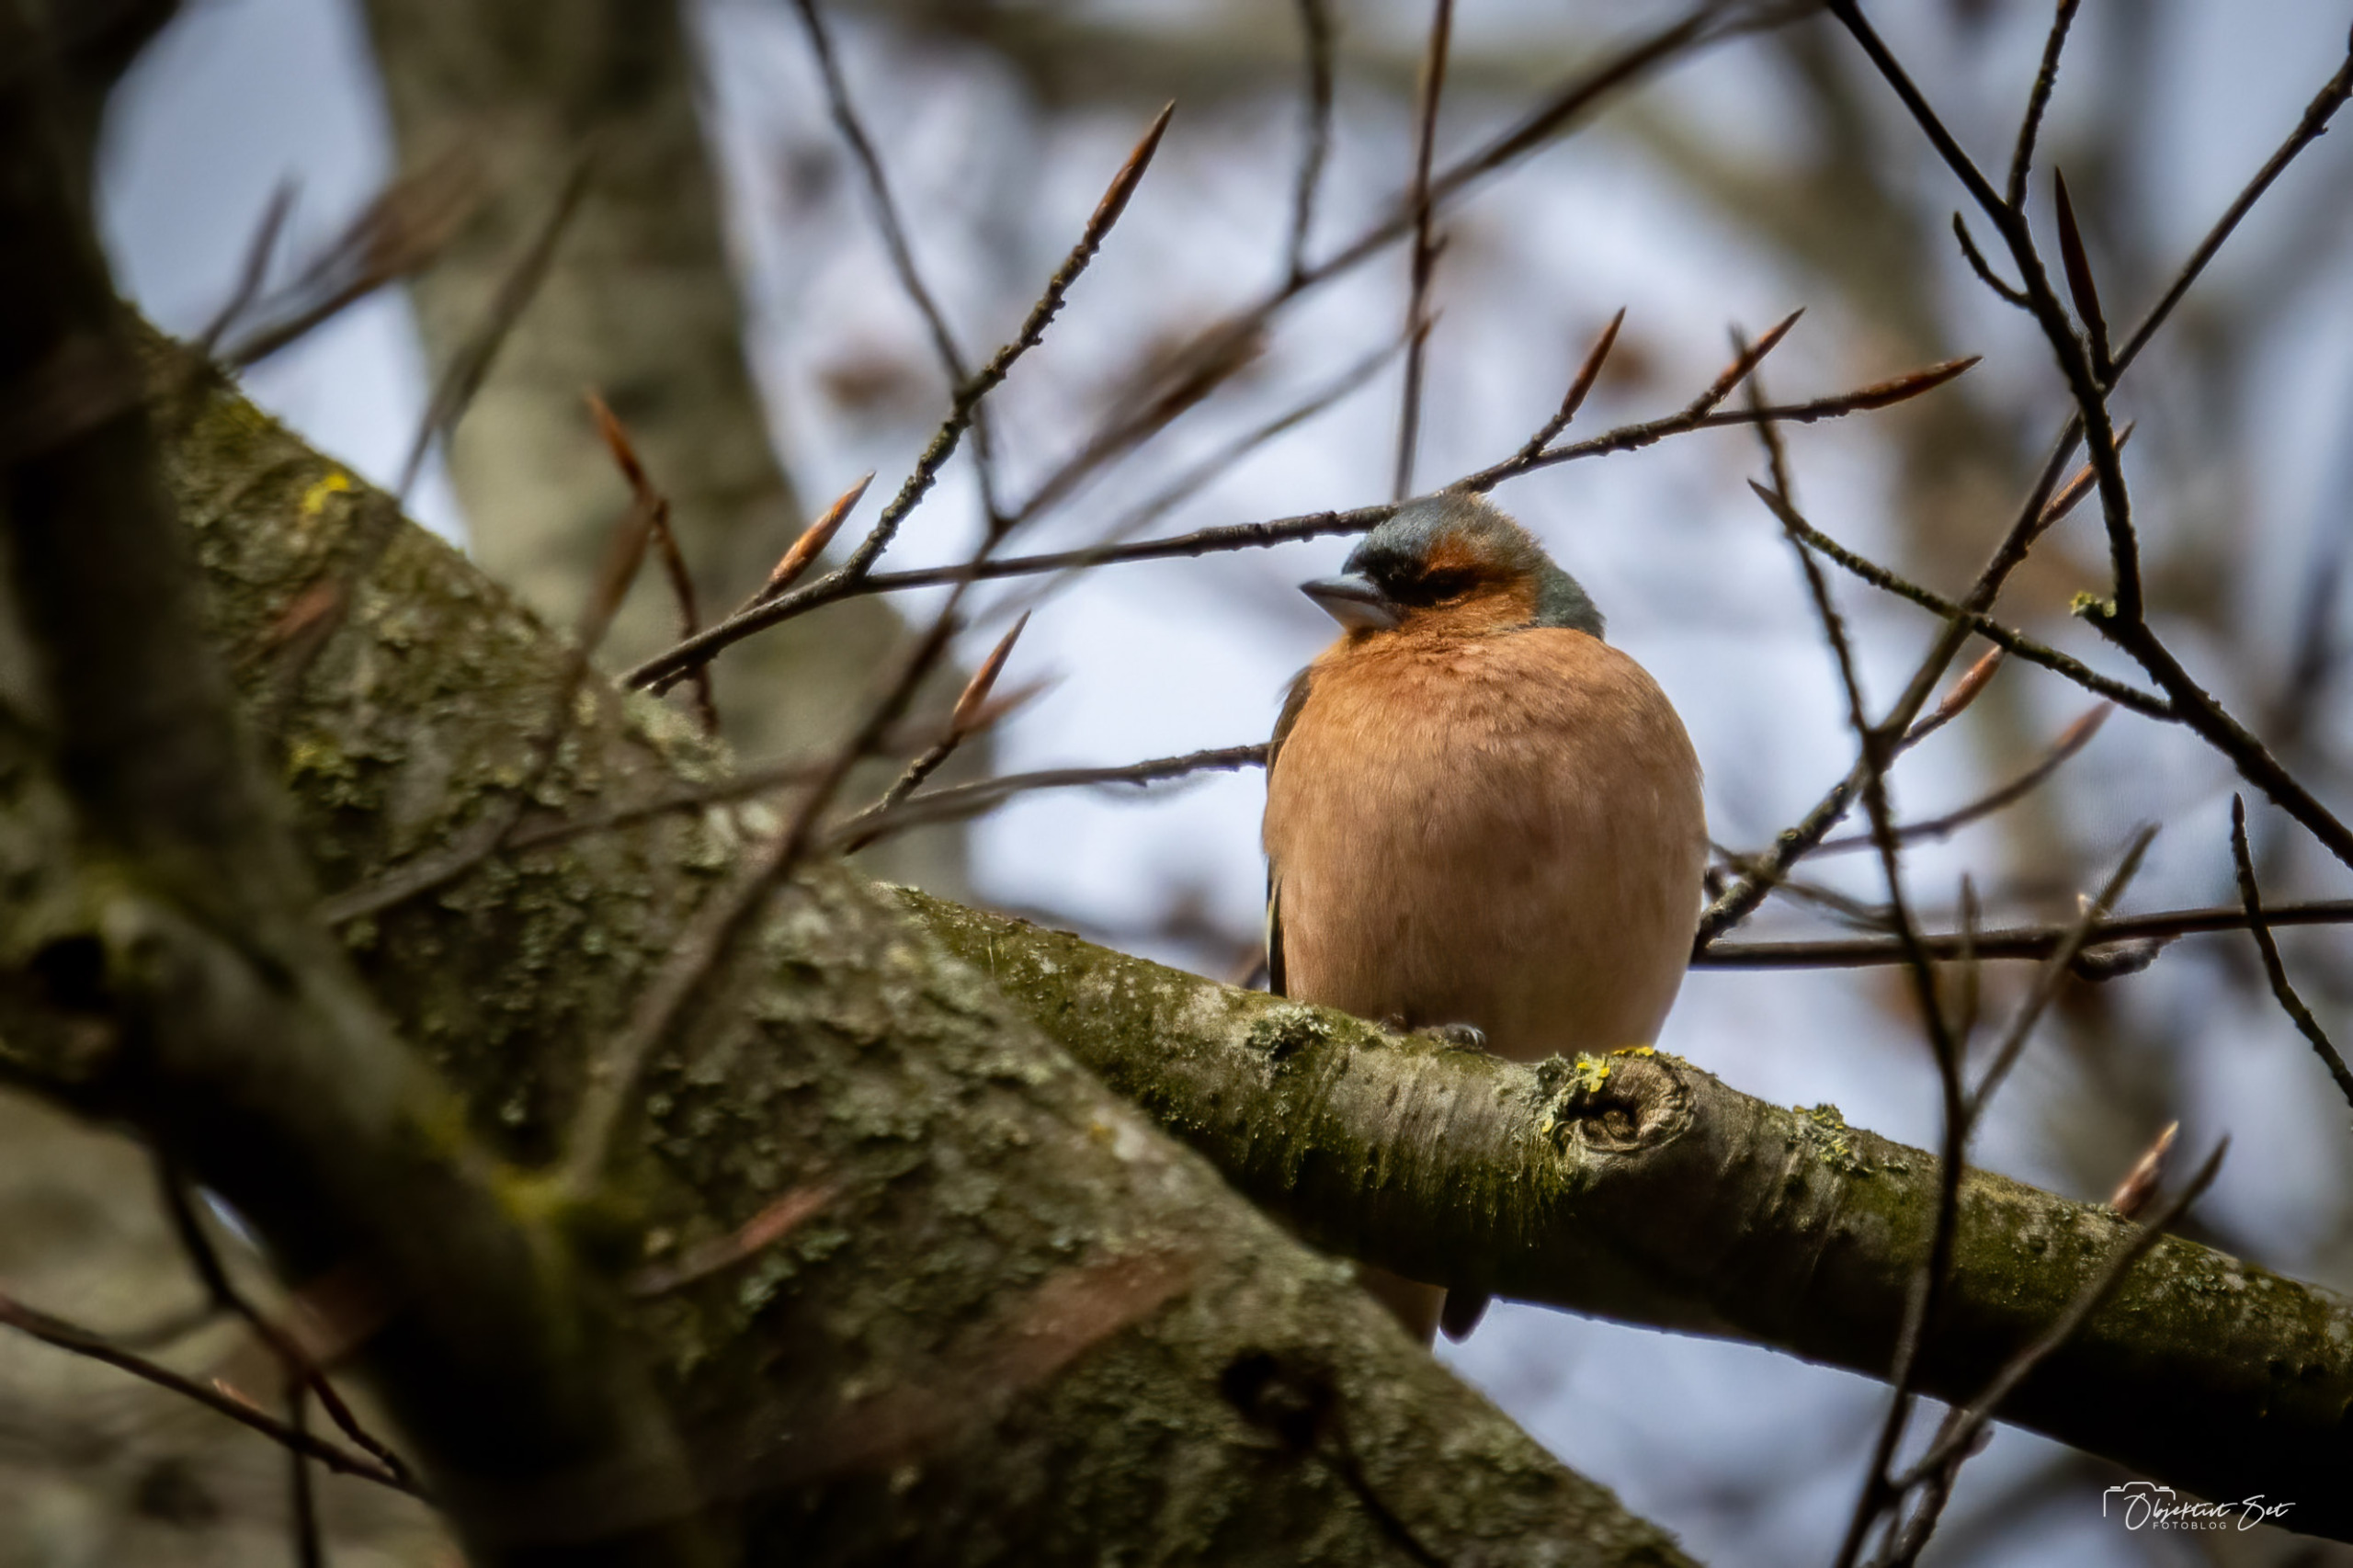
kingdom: Animalia
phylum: Chordata
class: Aves
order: Passeriformes
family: Fringillidae
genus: Fringilla
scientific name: Fringilla coelebs
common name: Bogfinke
